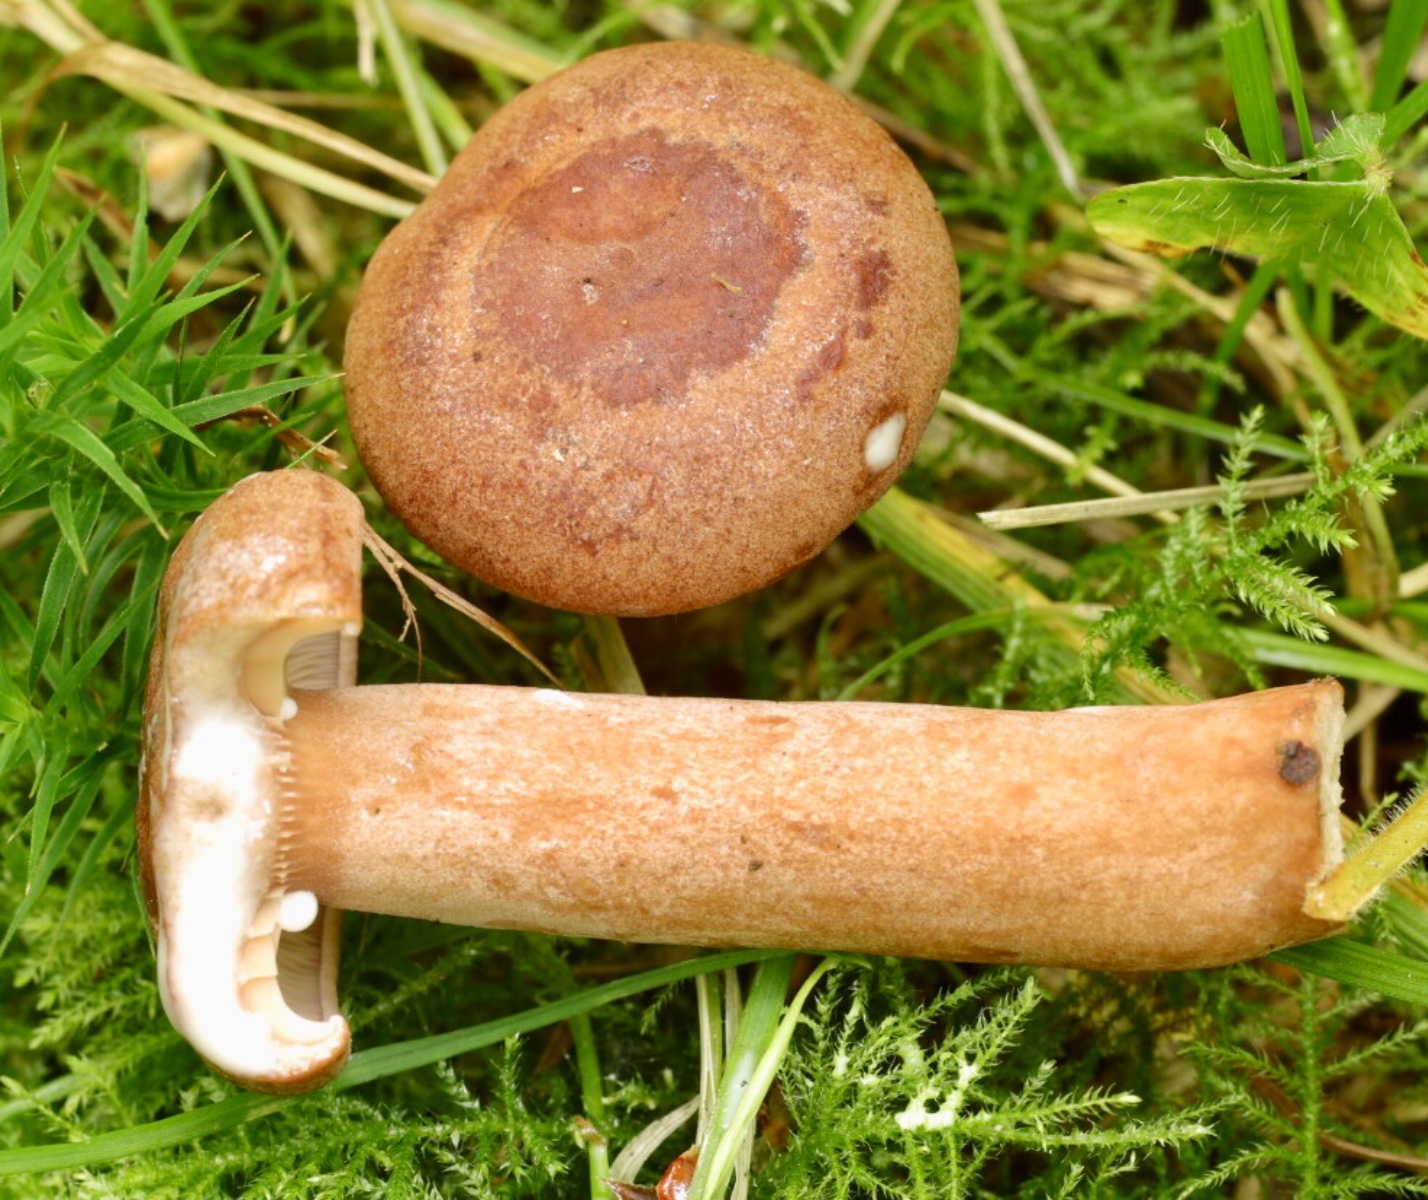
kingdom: Fungi
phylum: Basidiomycota
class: Agaricomycetes
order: Russulales
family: Russulaceae
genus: Lactarius
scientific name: Lactarius quietus
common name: ege-mælkehat
